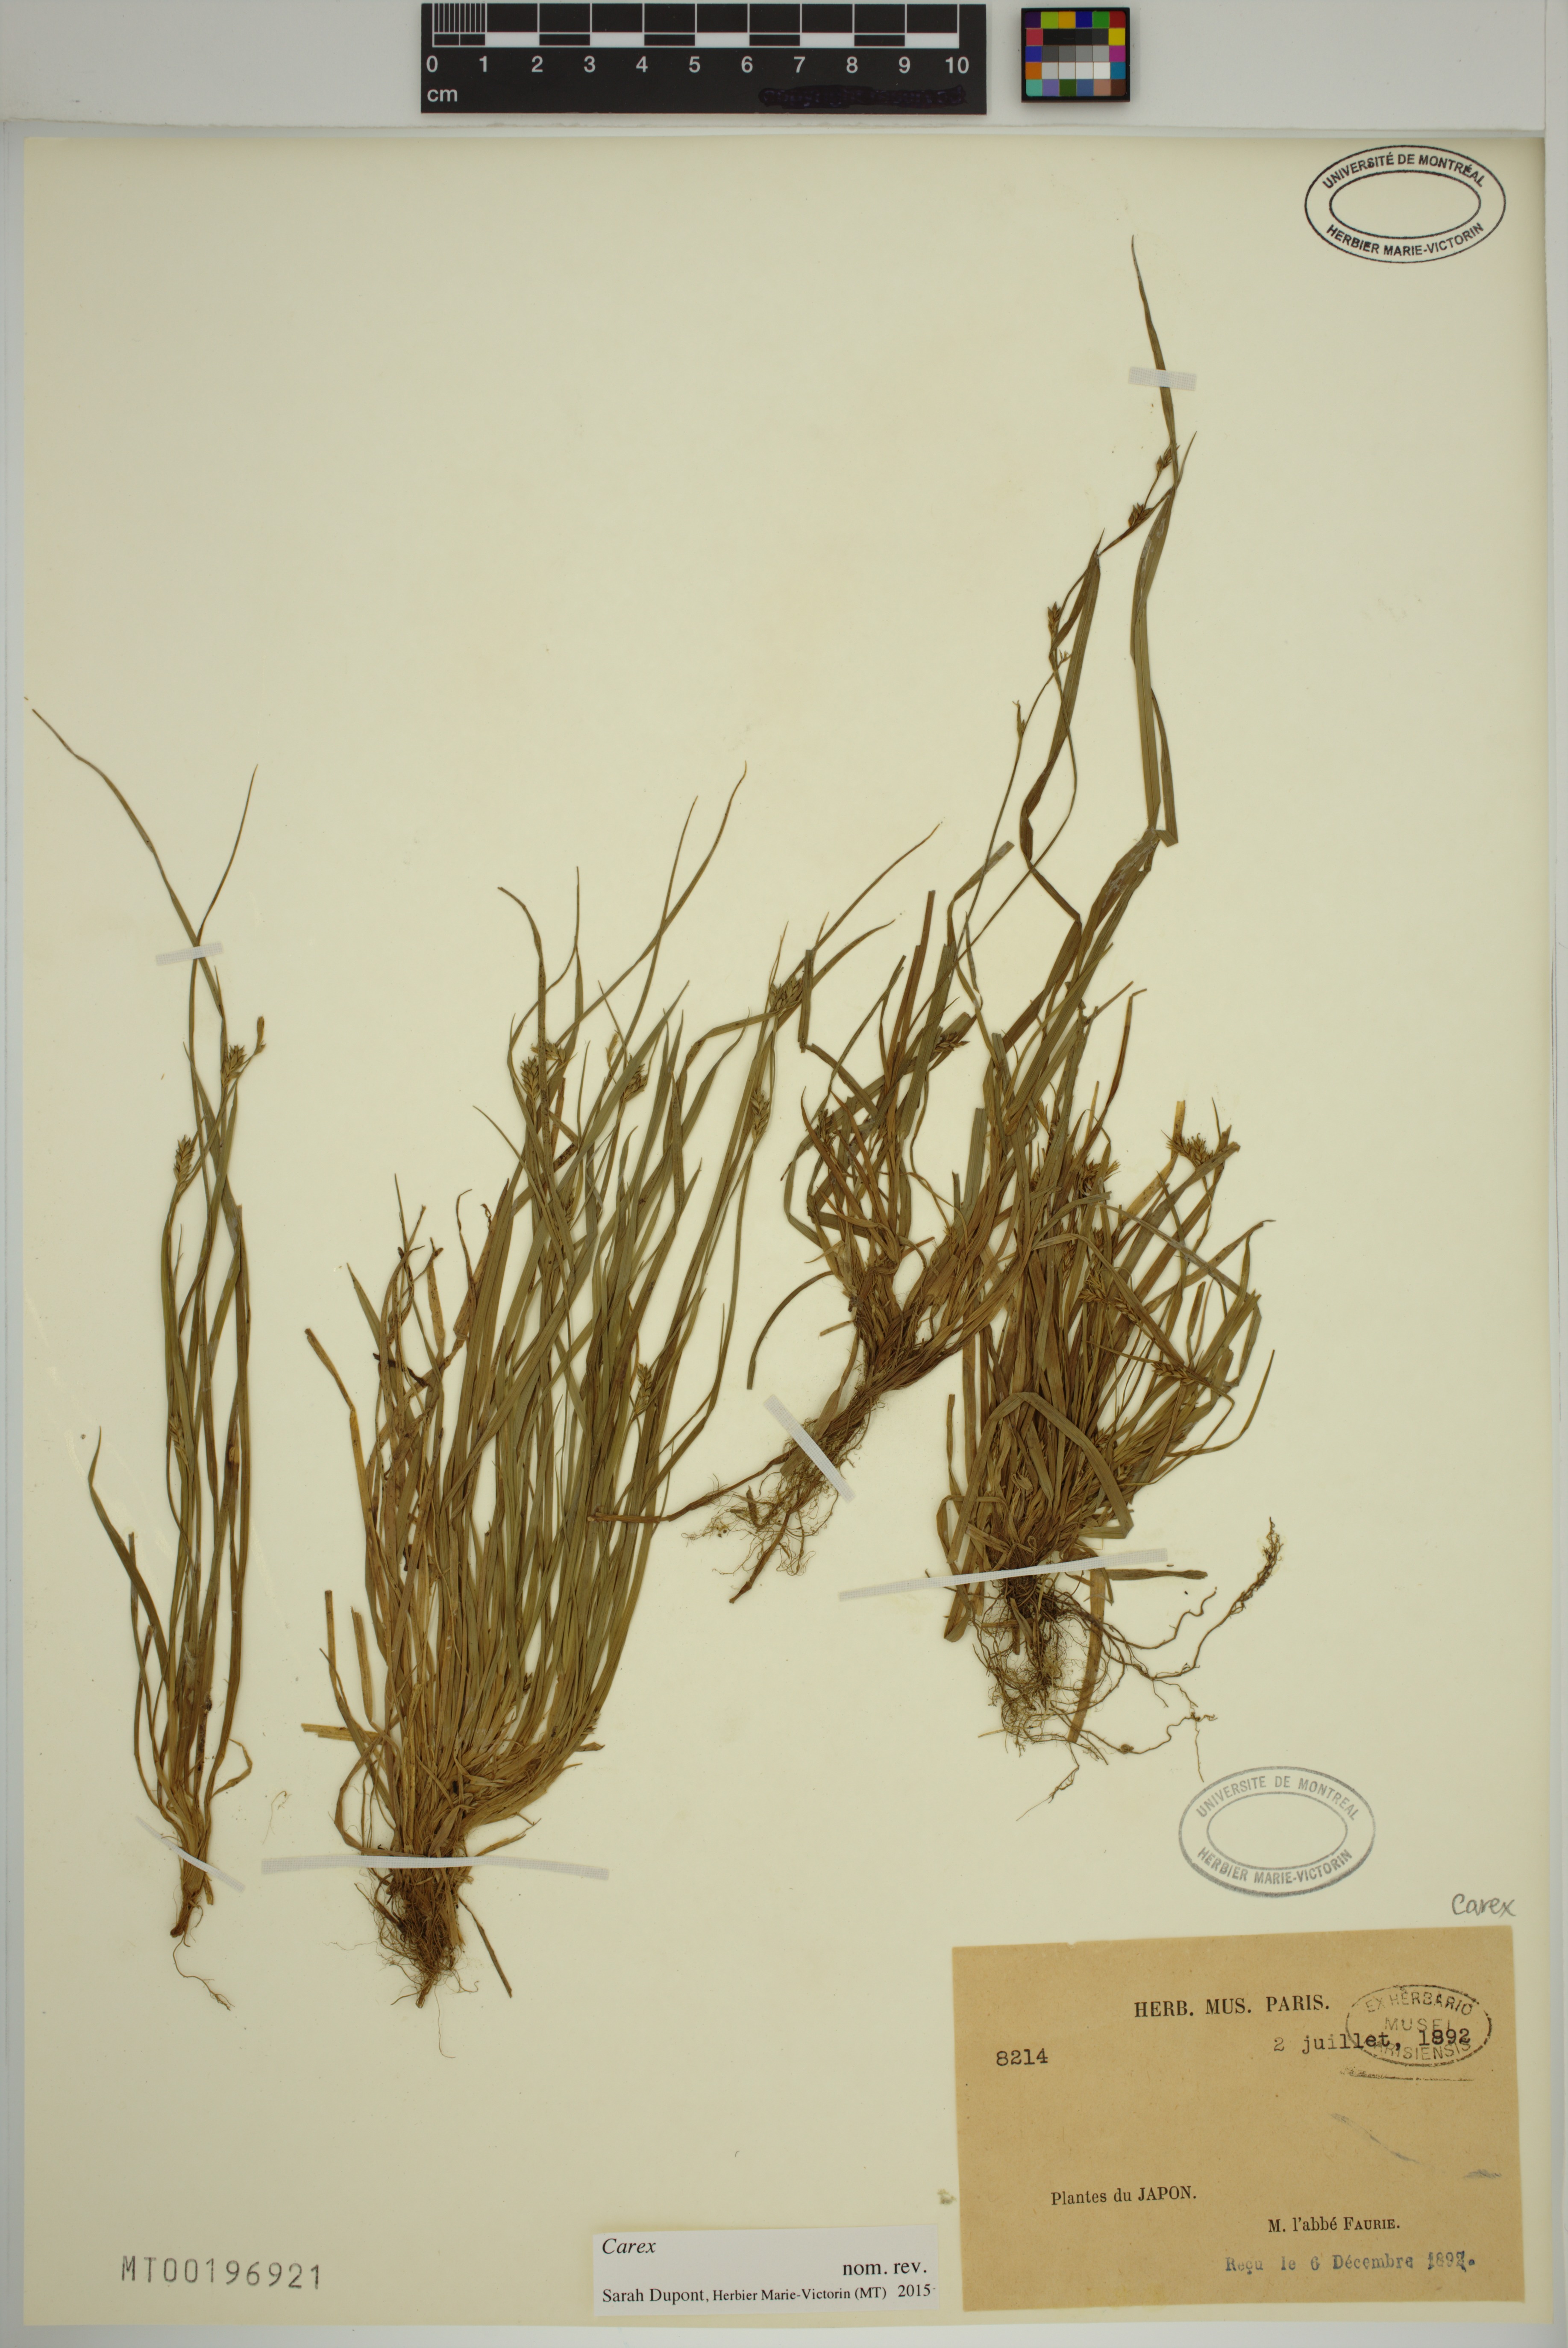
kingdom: Plantae
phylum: Tracheophyta
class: Liliopsida
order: Poales
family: Cyperaceae
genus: Carex
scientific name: Carex
